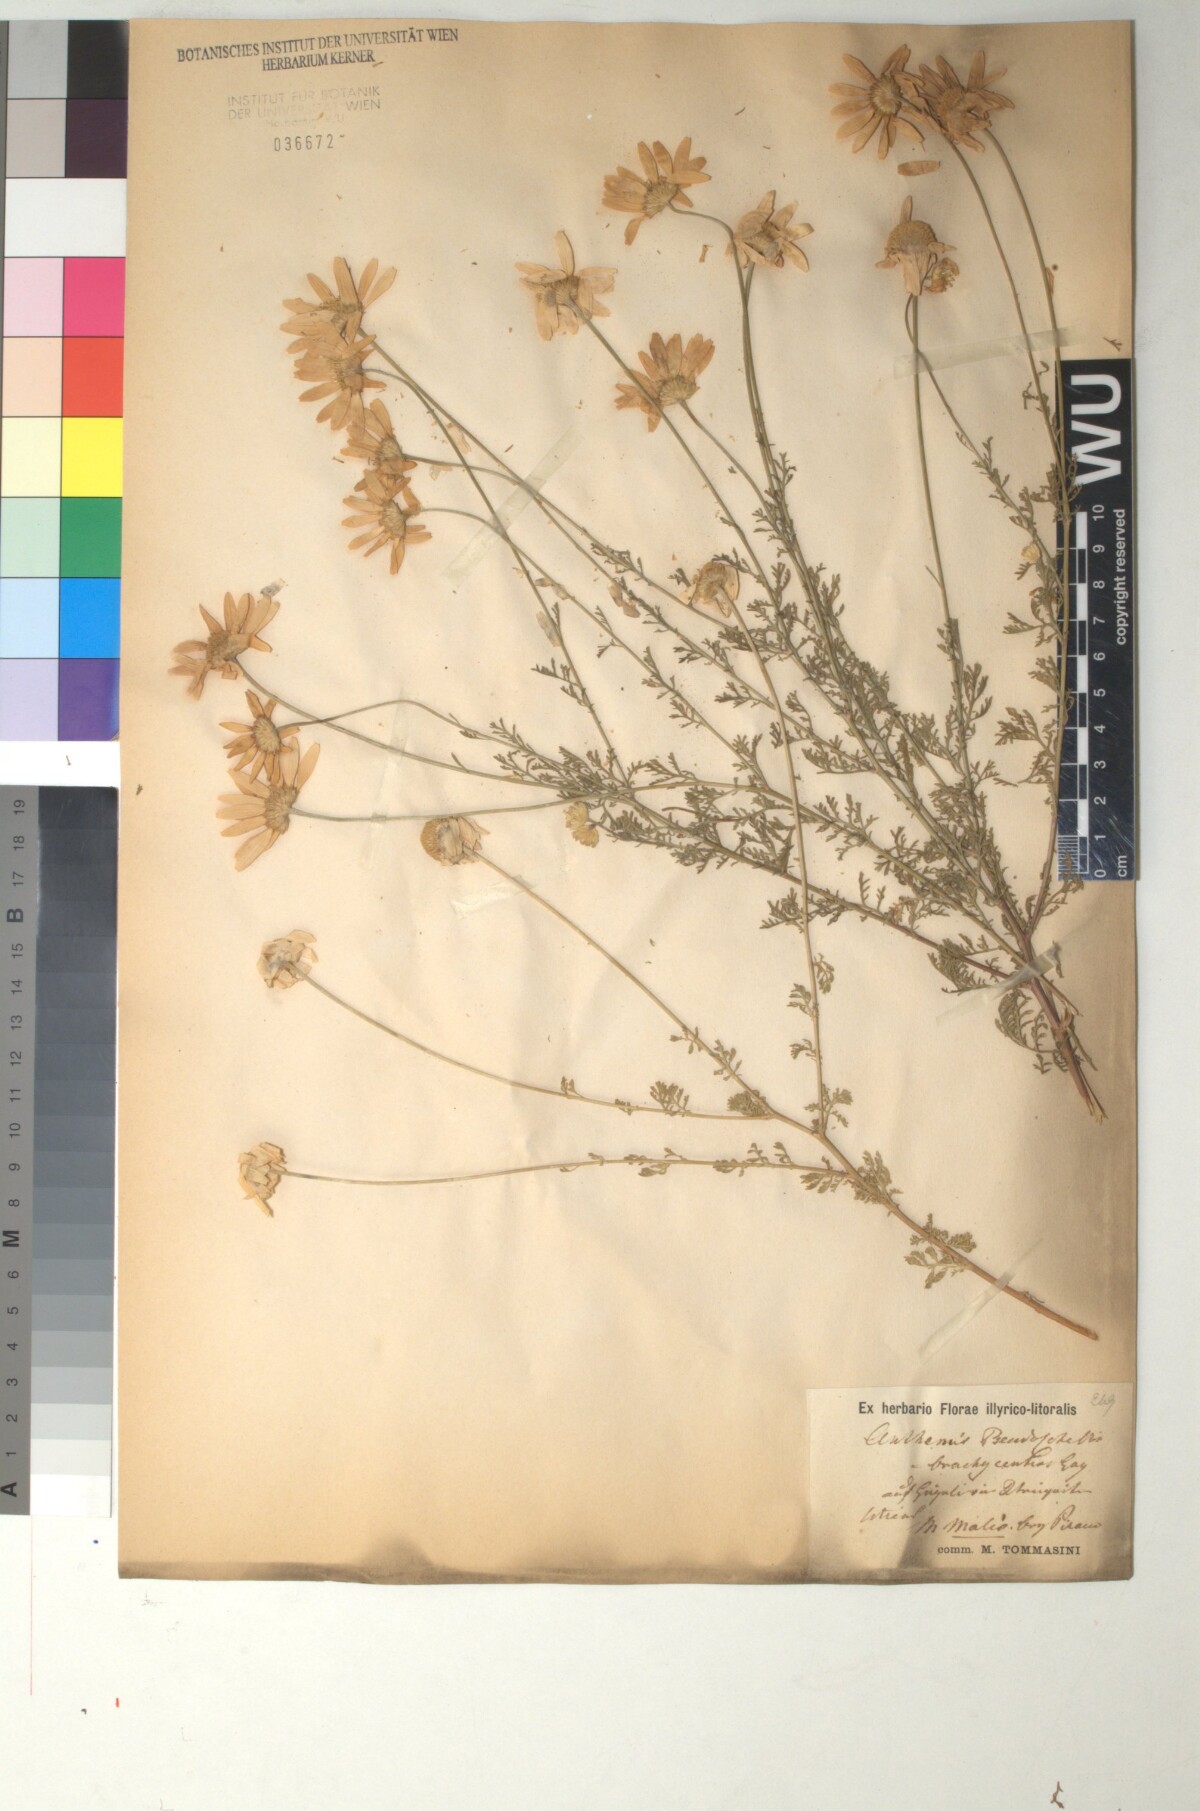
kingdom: Plantae
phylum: Tracheophyta
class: Magnoliopsida
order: Asterales
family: Asteraceae
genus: Cota
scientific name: Cota segetalis
